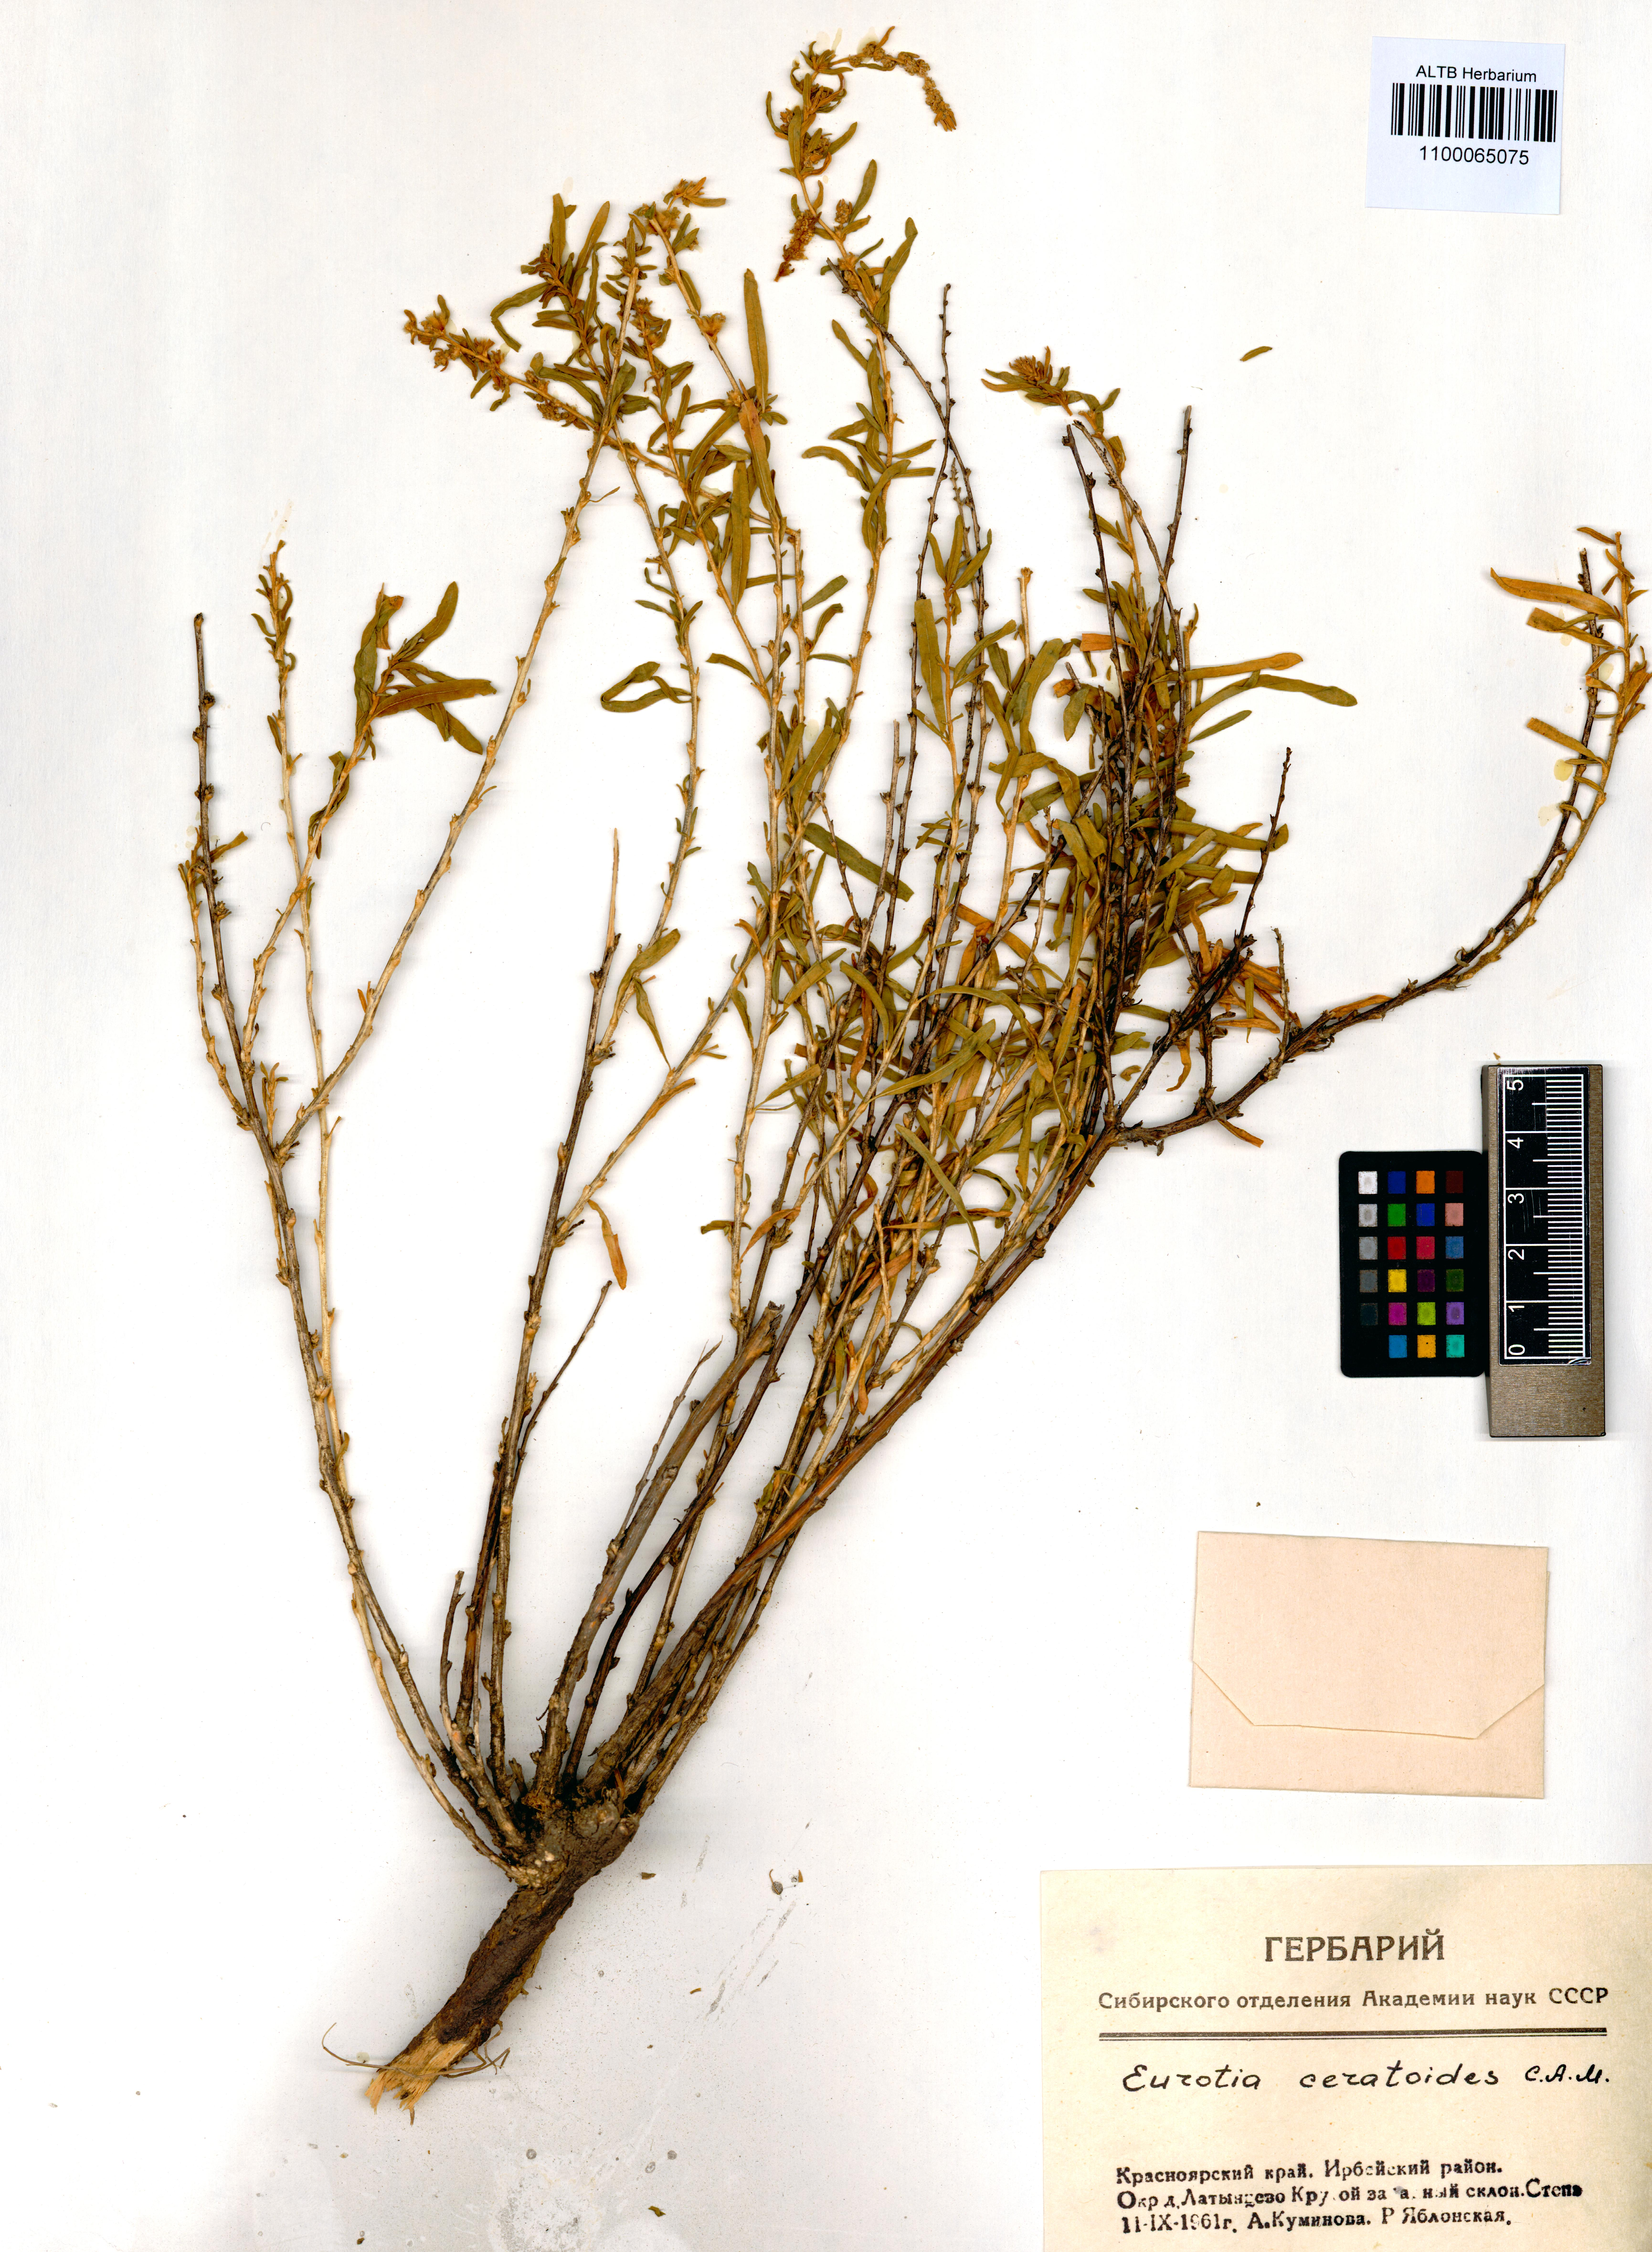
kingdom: Plantae
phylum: Tracheophyta
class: Magnoliopsida
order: Caryophyllales
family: Amaranthaceae
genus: Krascheninnikovia
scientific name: Krascheninnikovia ceratoides
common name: Pamirian winterfat
